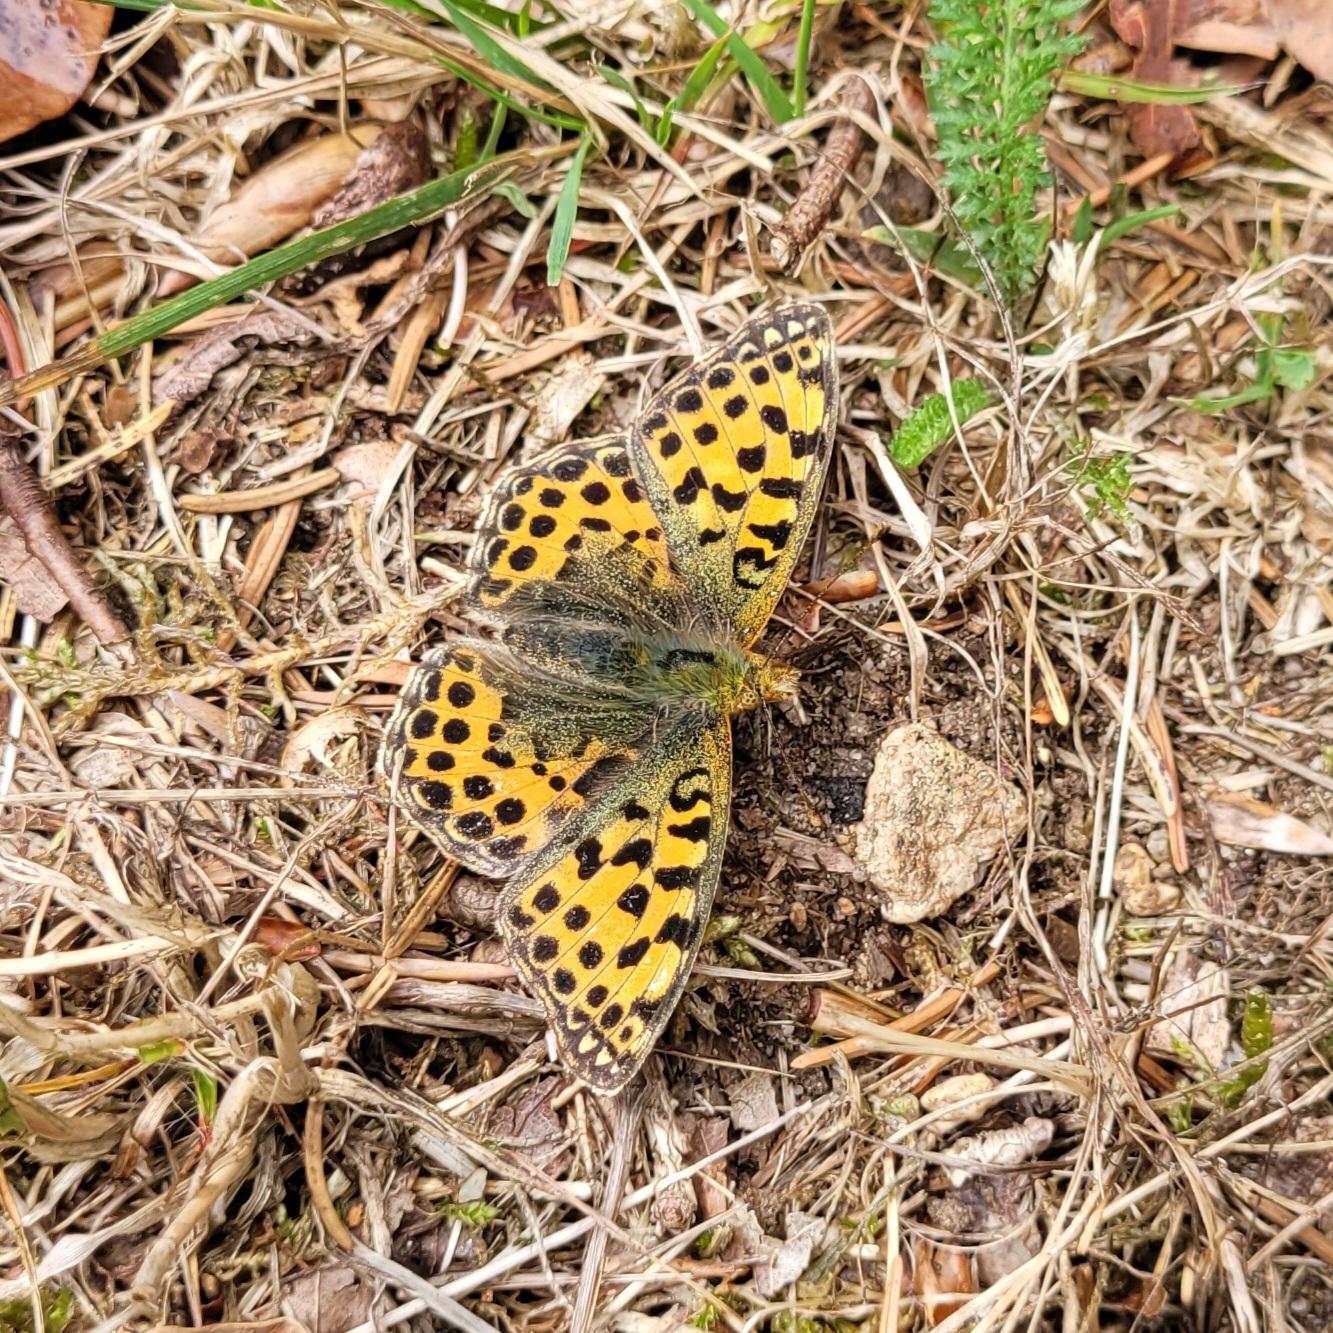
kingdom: Animalia
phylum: Arthropoda
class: Insecta
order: Lepidoptera
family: Nymphalidae
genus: Issoria
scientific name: Issoria lathonia
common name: Storplettet perlemorsommerfugl
